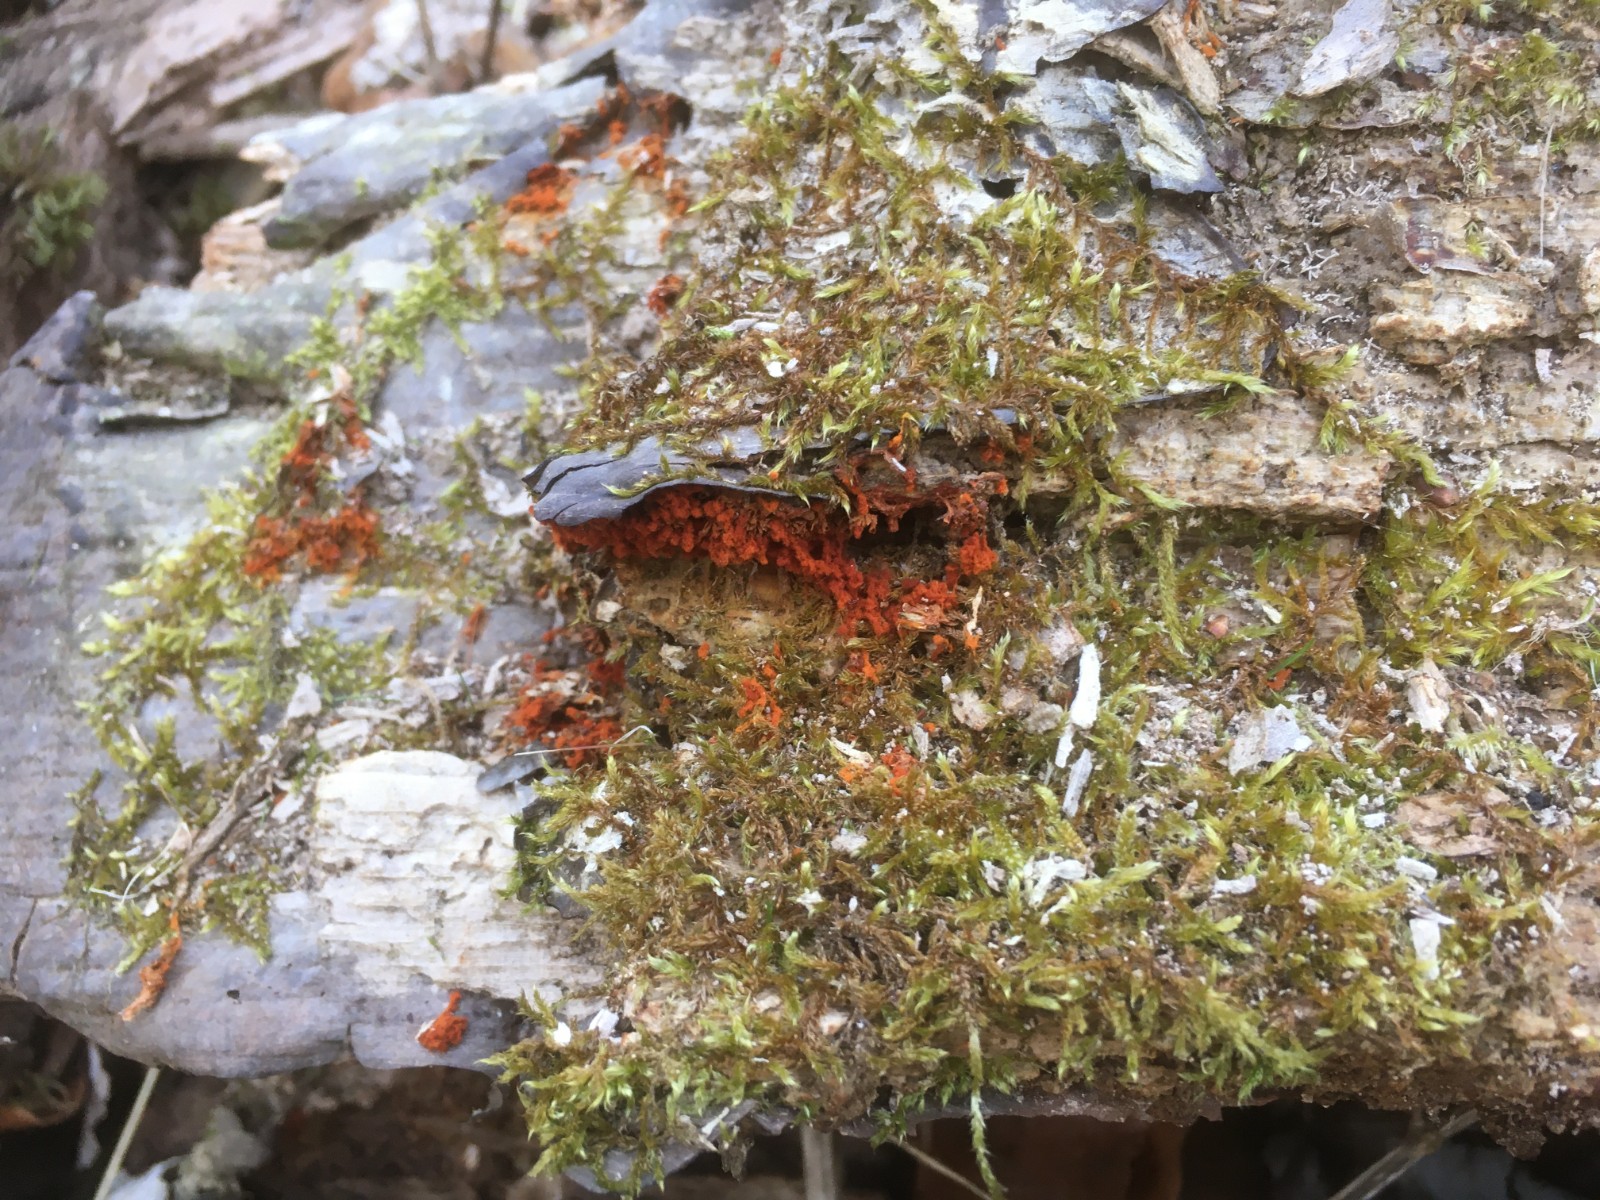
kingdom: Protozoa
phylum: Mycetozoa
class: Myxomycetes
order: Trichiales
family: Trichiaceae
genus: Metatrichia
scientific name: Metatrichia vesparia
